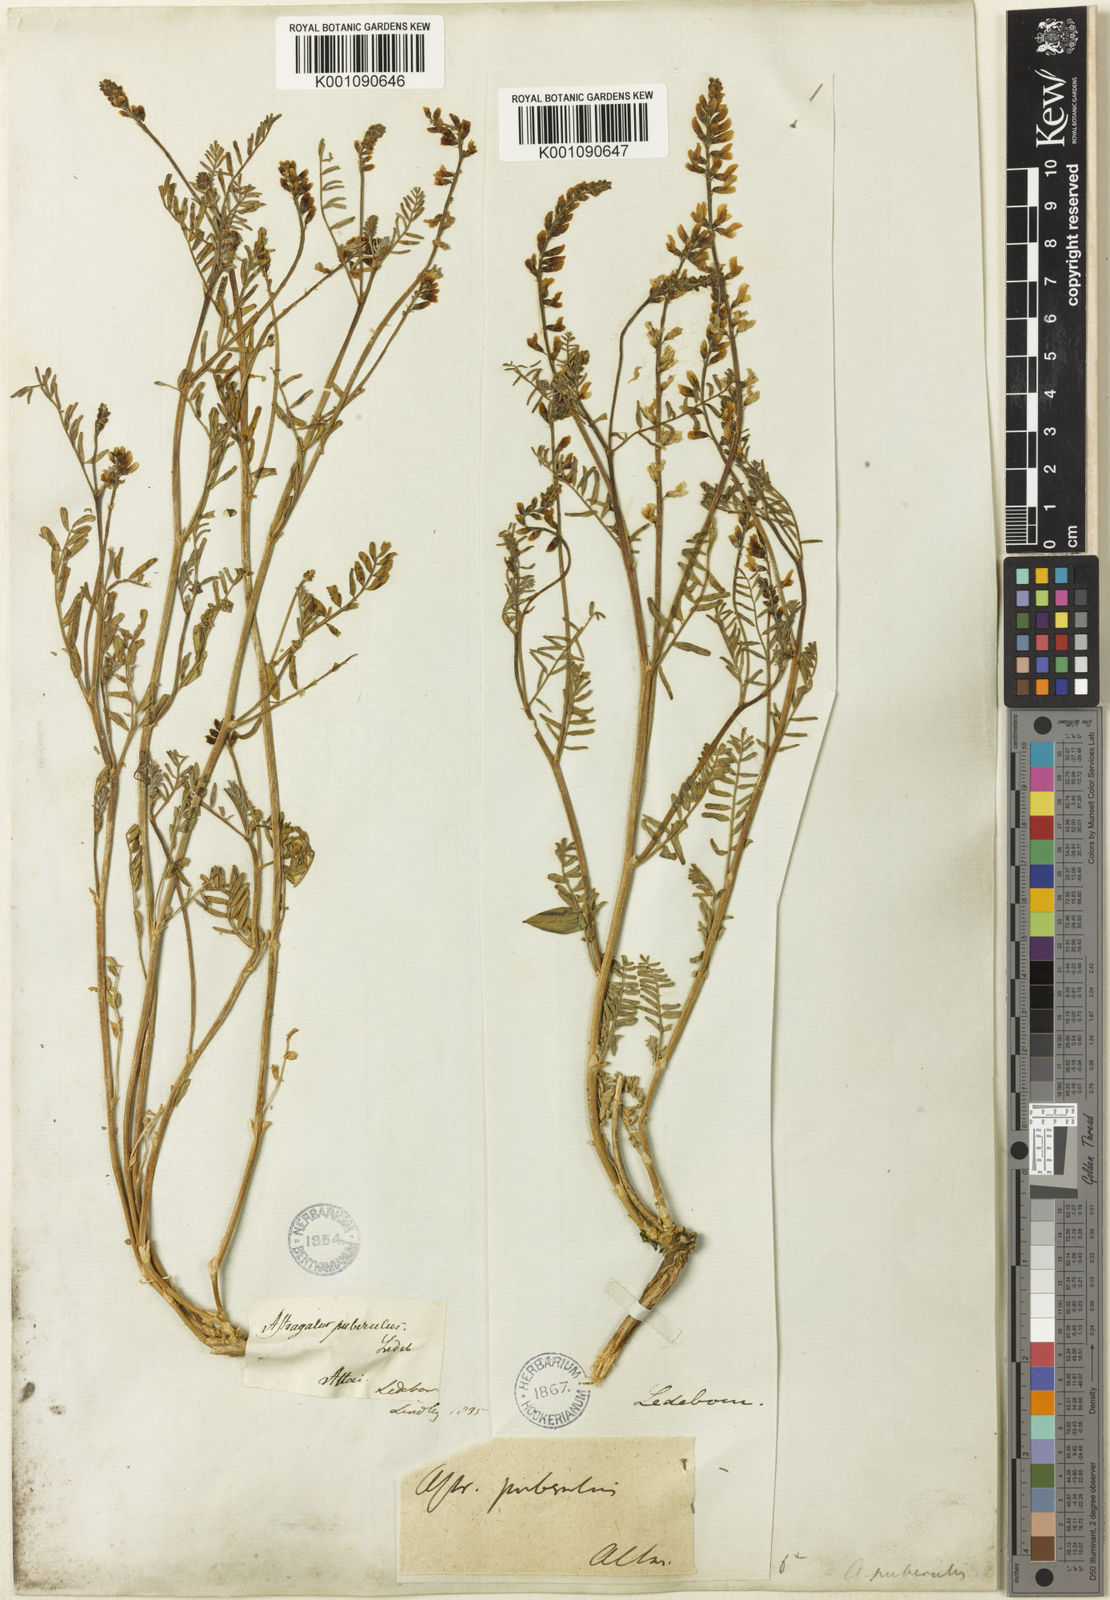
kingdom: Plantae
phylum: Tracheophyta
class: Magnoliopsida
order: Fabales
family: Fabaceae
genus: Astragalus
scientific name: Astragalus
